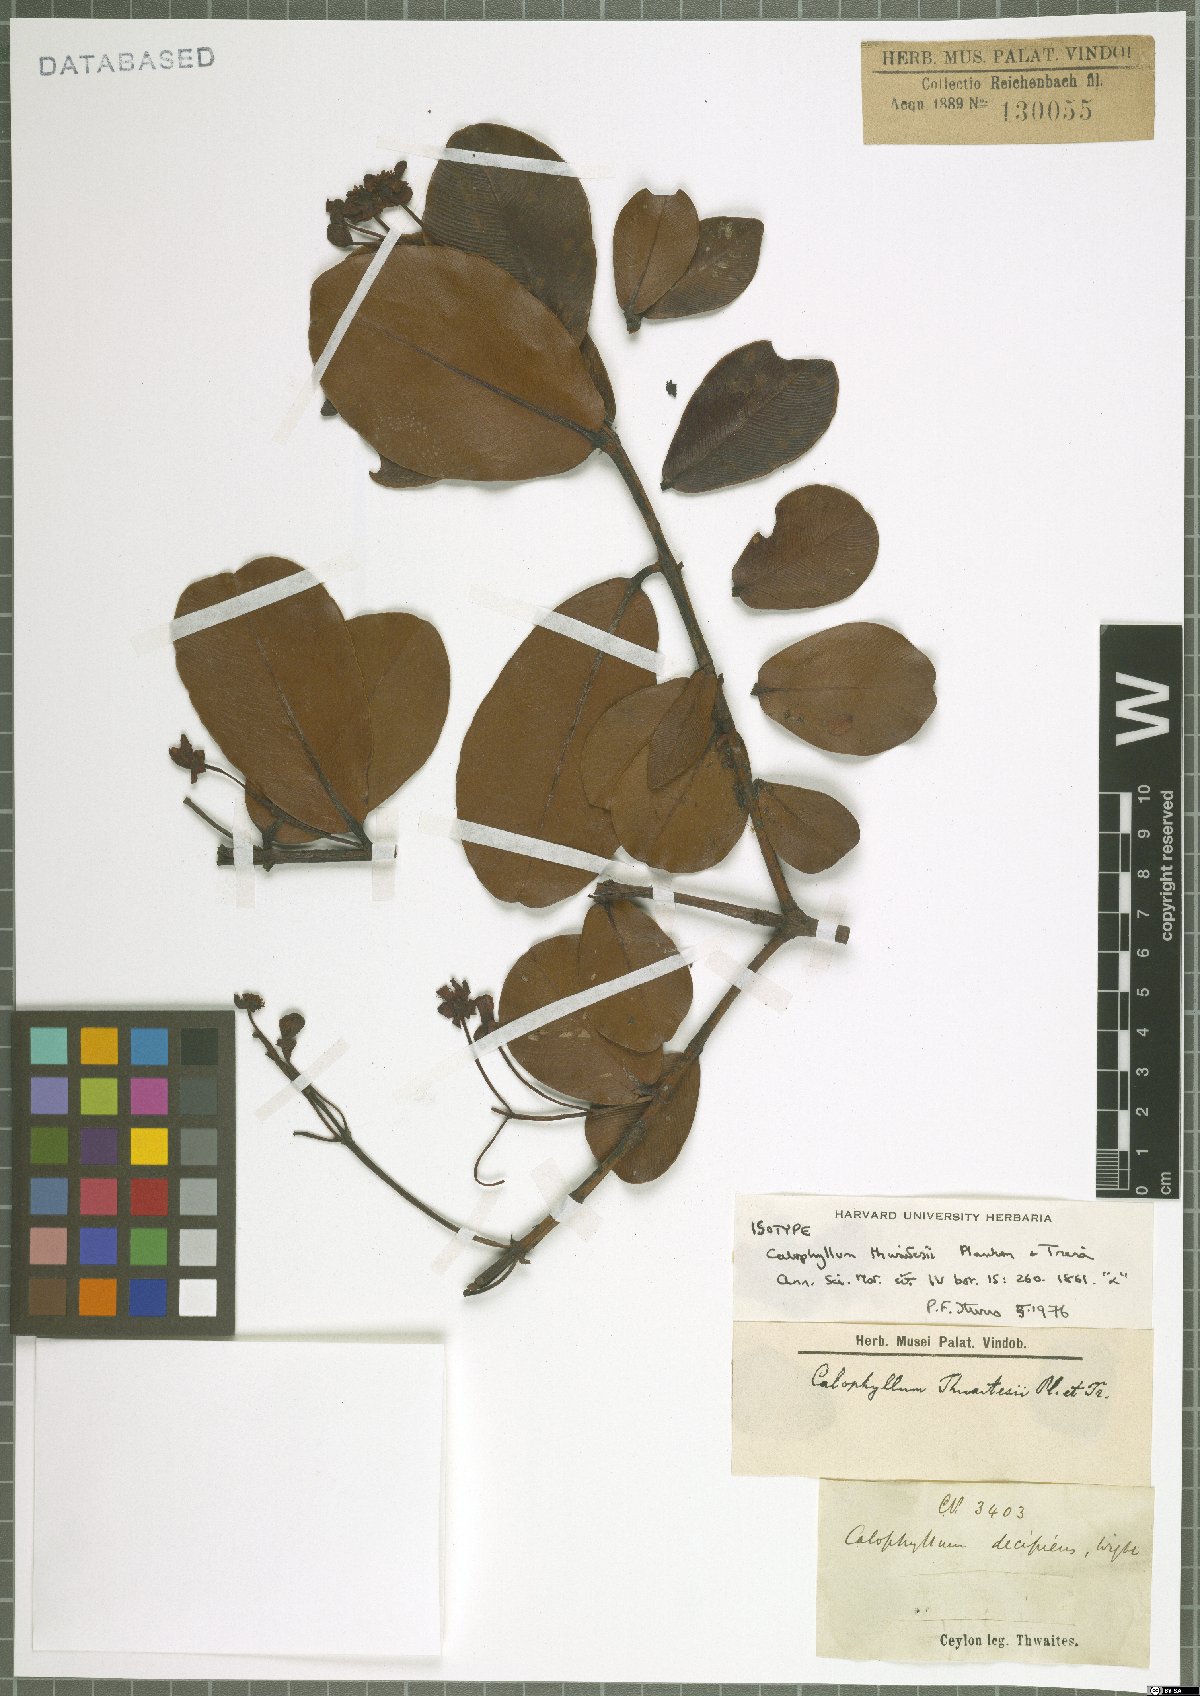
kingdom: Plantae
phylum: Tracheophyta
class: Magnoliopsida
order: Malpighiales
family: Calophyllaceae
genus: Calophyllum
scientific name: Calophyllum thwaitesii
